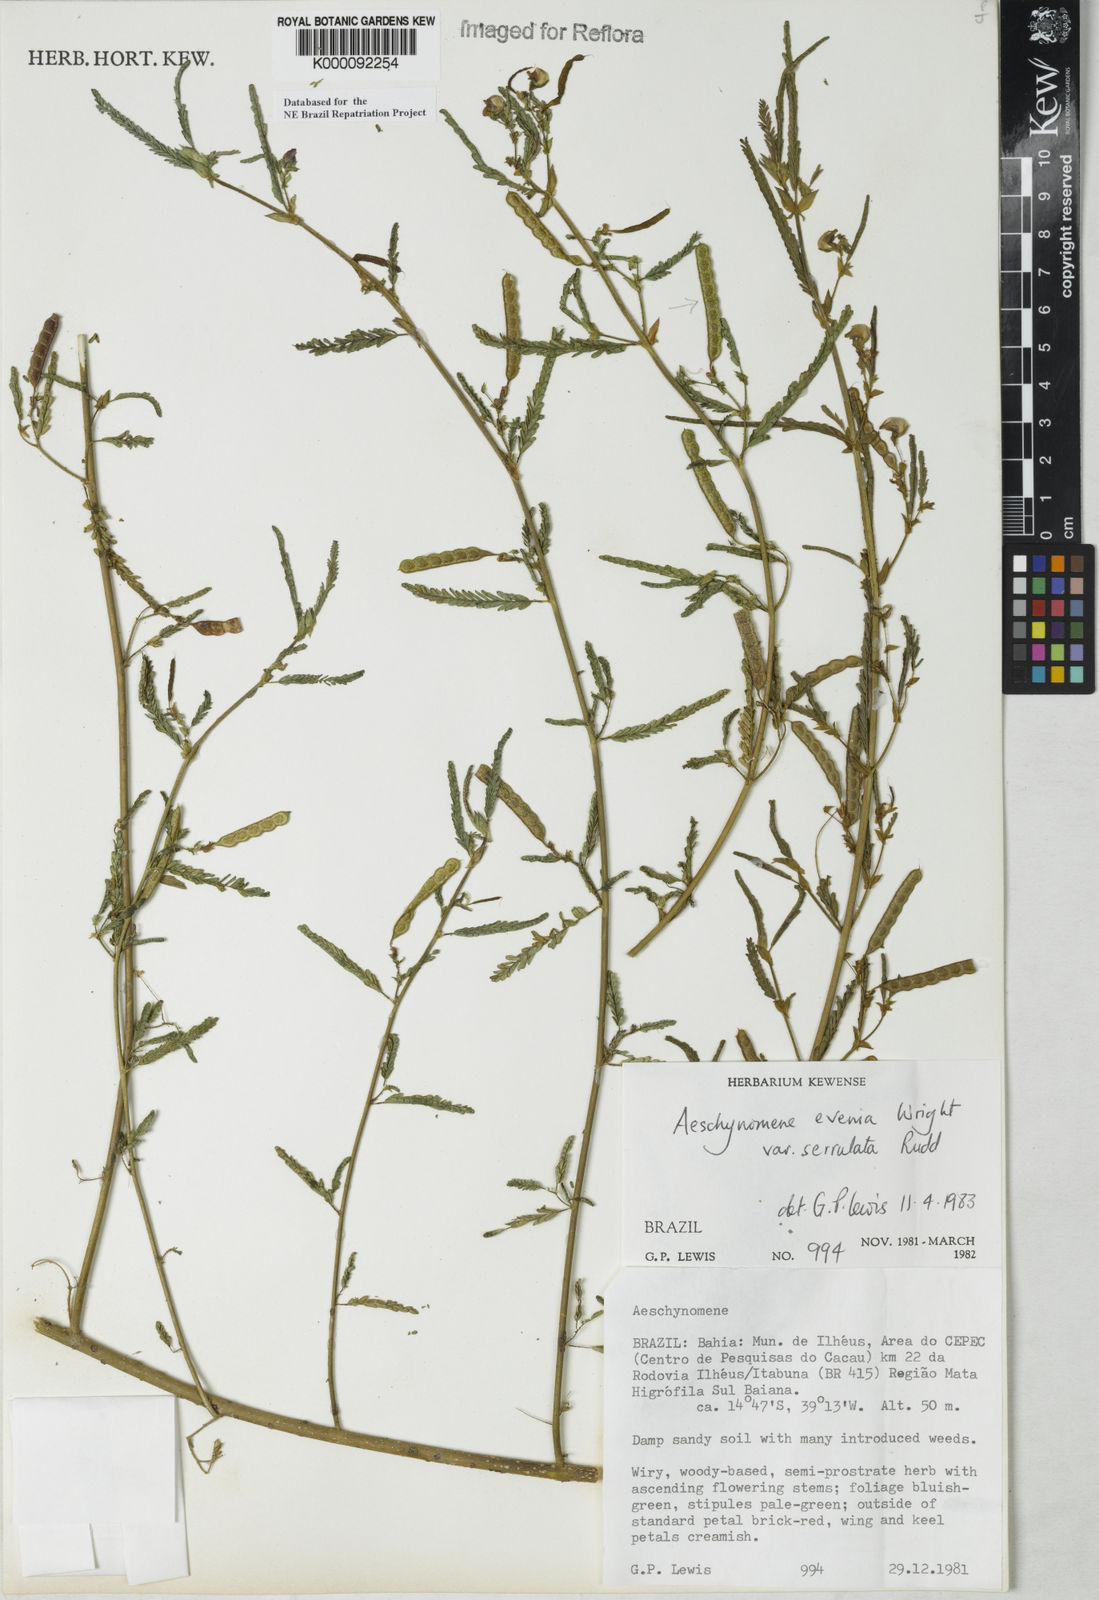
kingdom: Plantae
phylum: Tracheophyta
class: Magnoliopsida
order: Fabales
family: Fabaceae
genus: Aeschynomene
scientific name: Aeschynomene evenia
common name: Shrubby jointvetch
